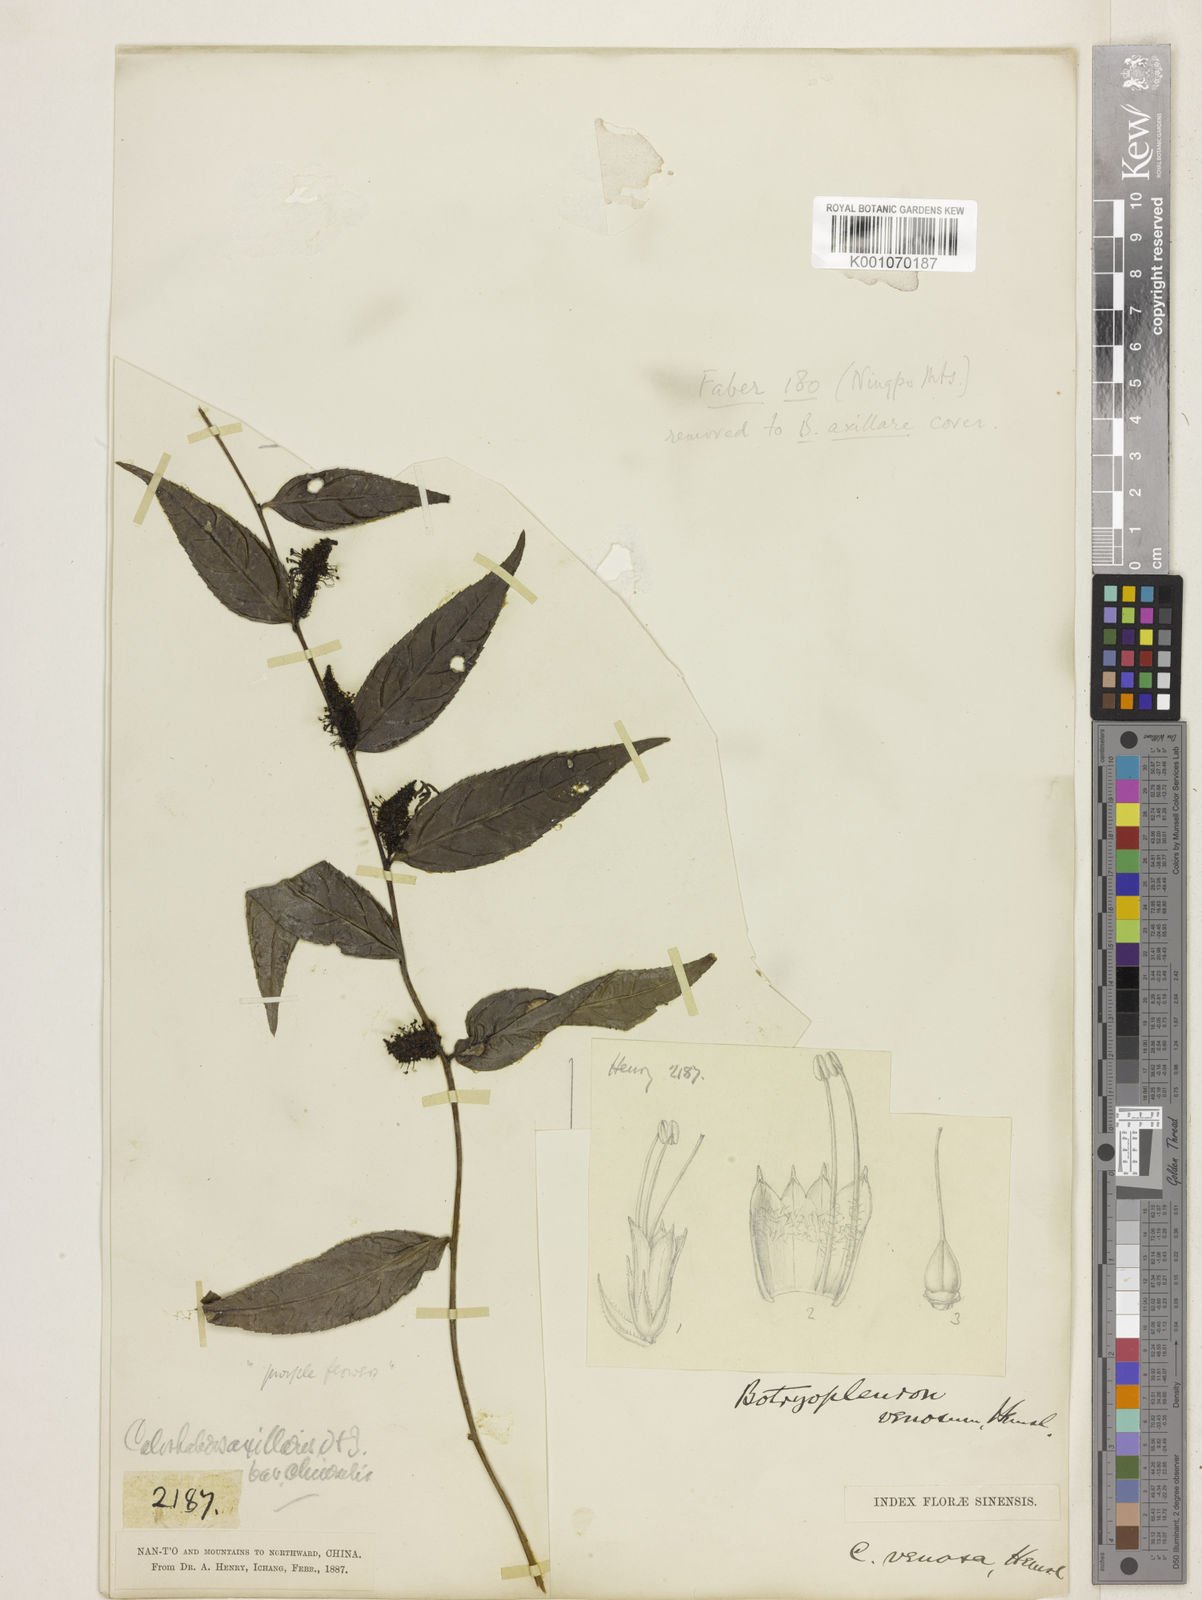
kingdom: Plantae
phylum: Tracheophyta
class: Magnoliopsida
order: Lamiales
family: Plantaginaceae
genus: Veronicastrum
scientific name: Veronicastrum stenostachyum
